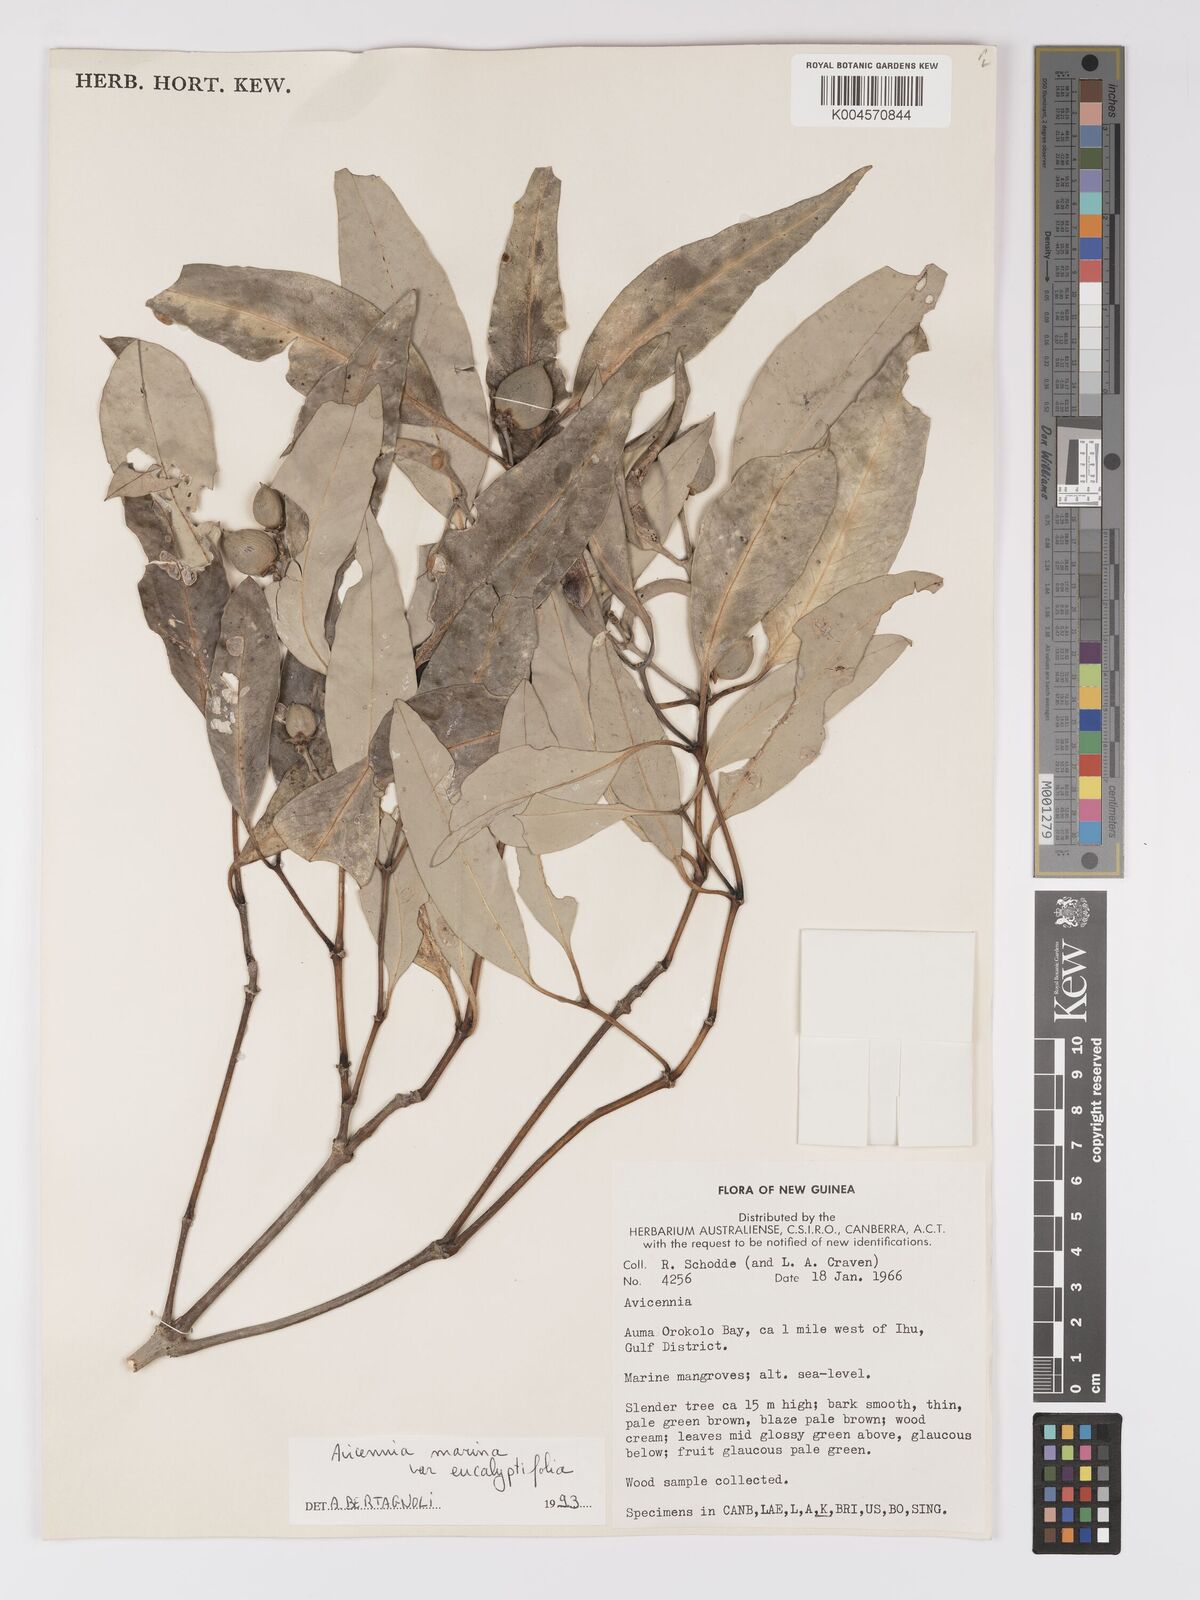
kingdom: Plantae
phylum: Tracheophyta
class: Magnoliopsida
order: Lamiales
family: Acanthaceae
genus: Avicennia
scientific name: Avicennia marina
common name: Gray mangrove
